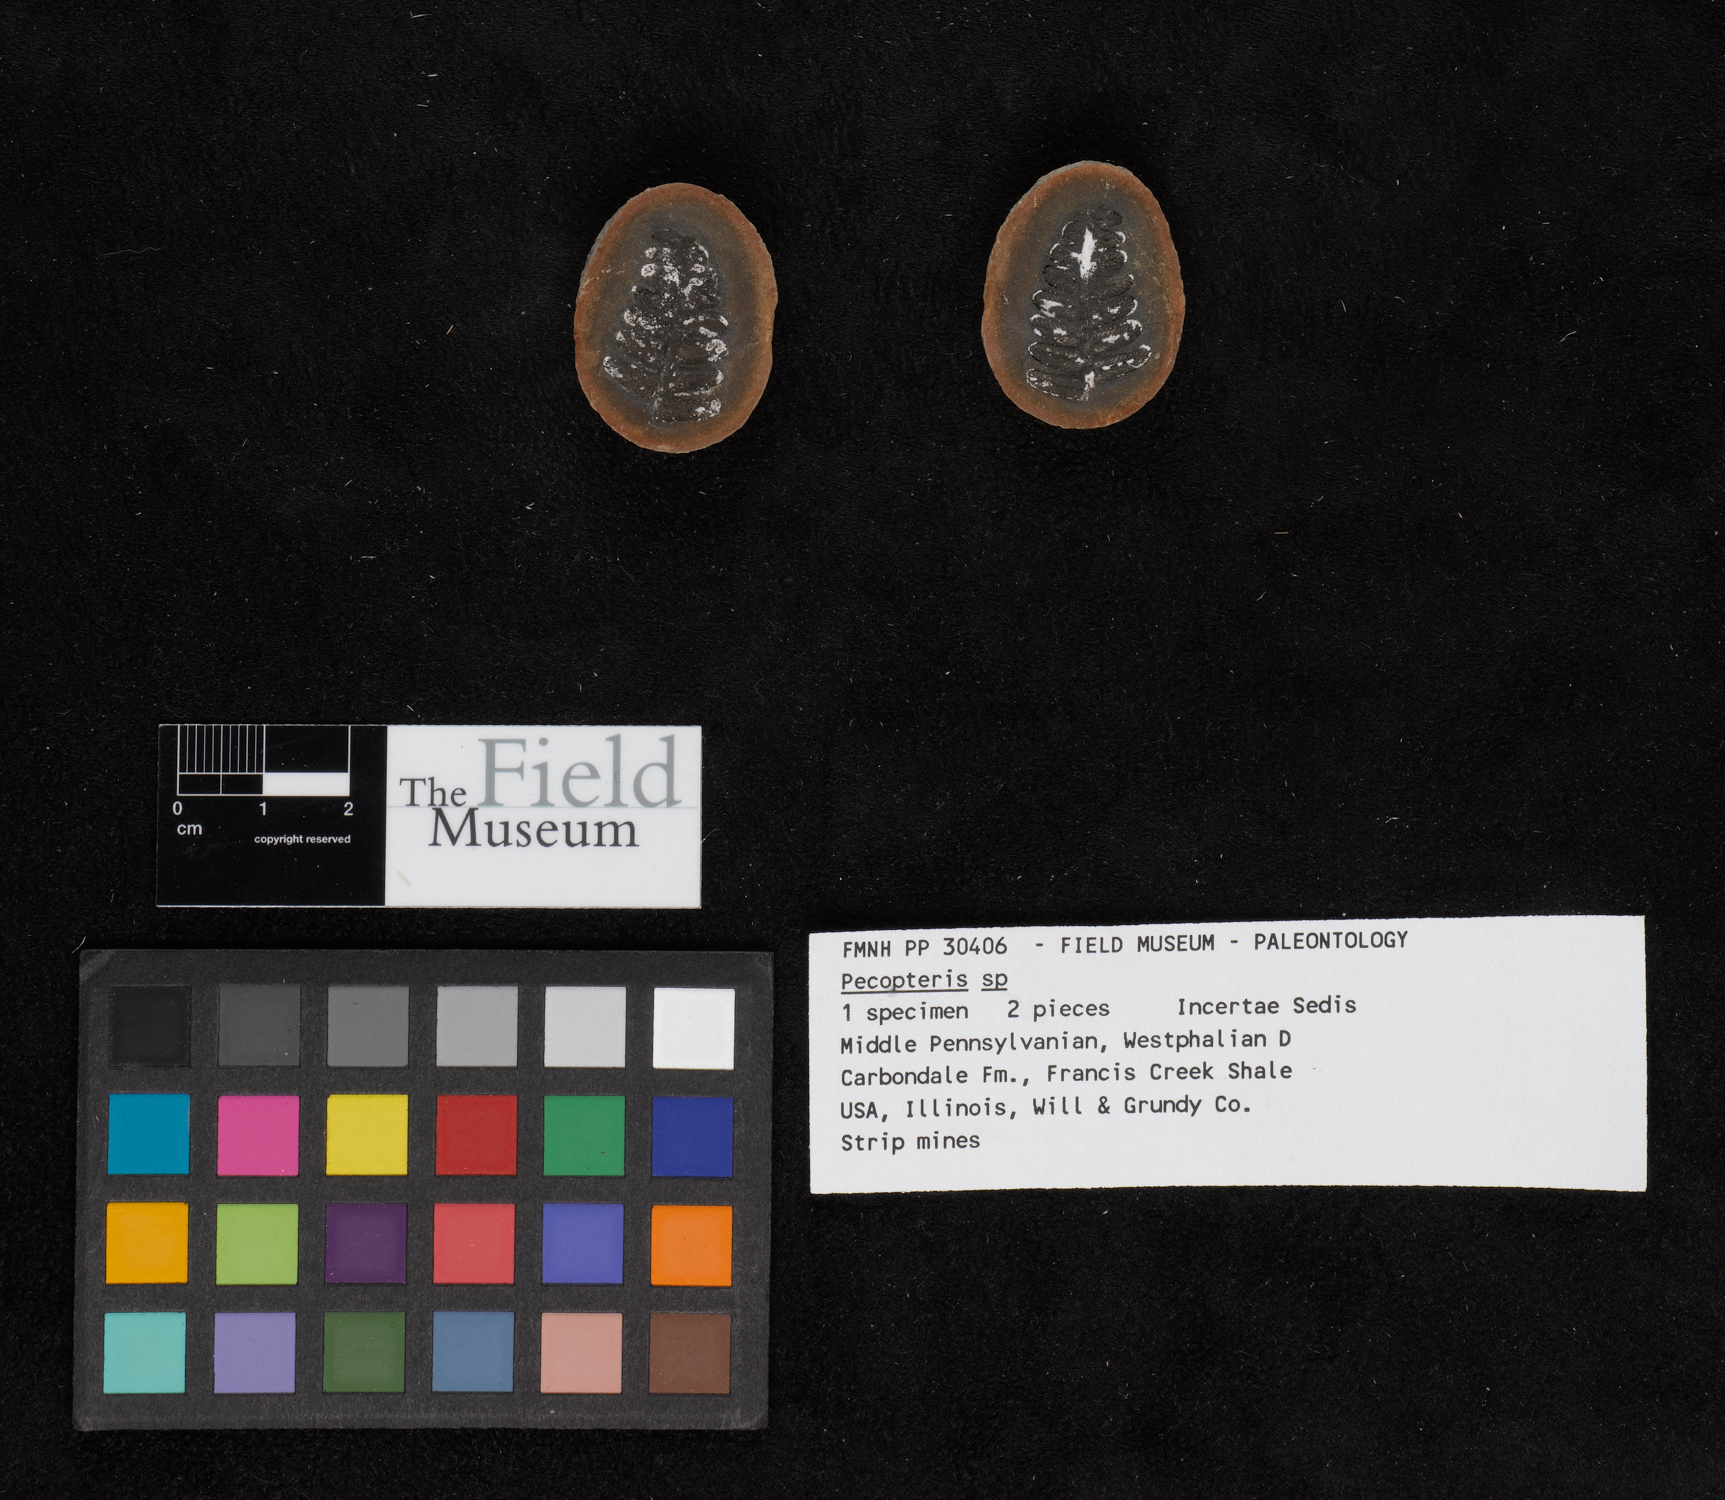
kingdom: Plantae
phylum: Tracheophyta
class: Polypodiopsida
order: Marattiales
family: Asterothecaceae
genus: Pecopteris
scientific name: Pecopteris
